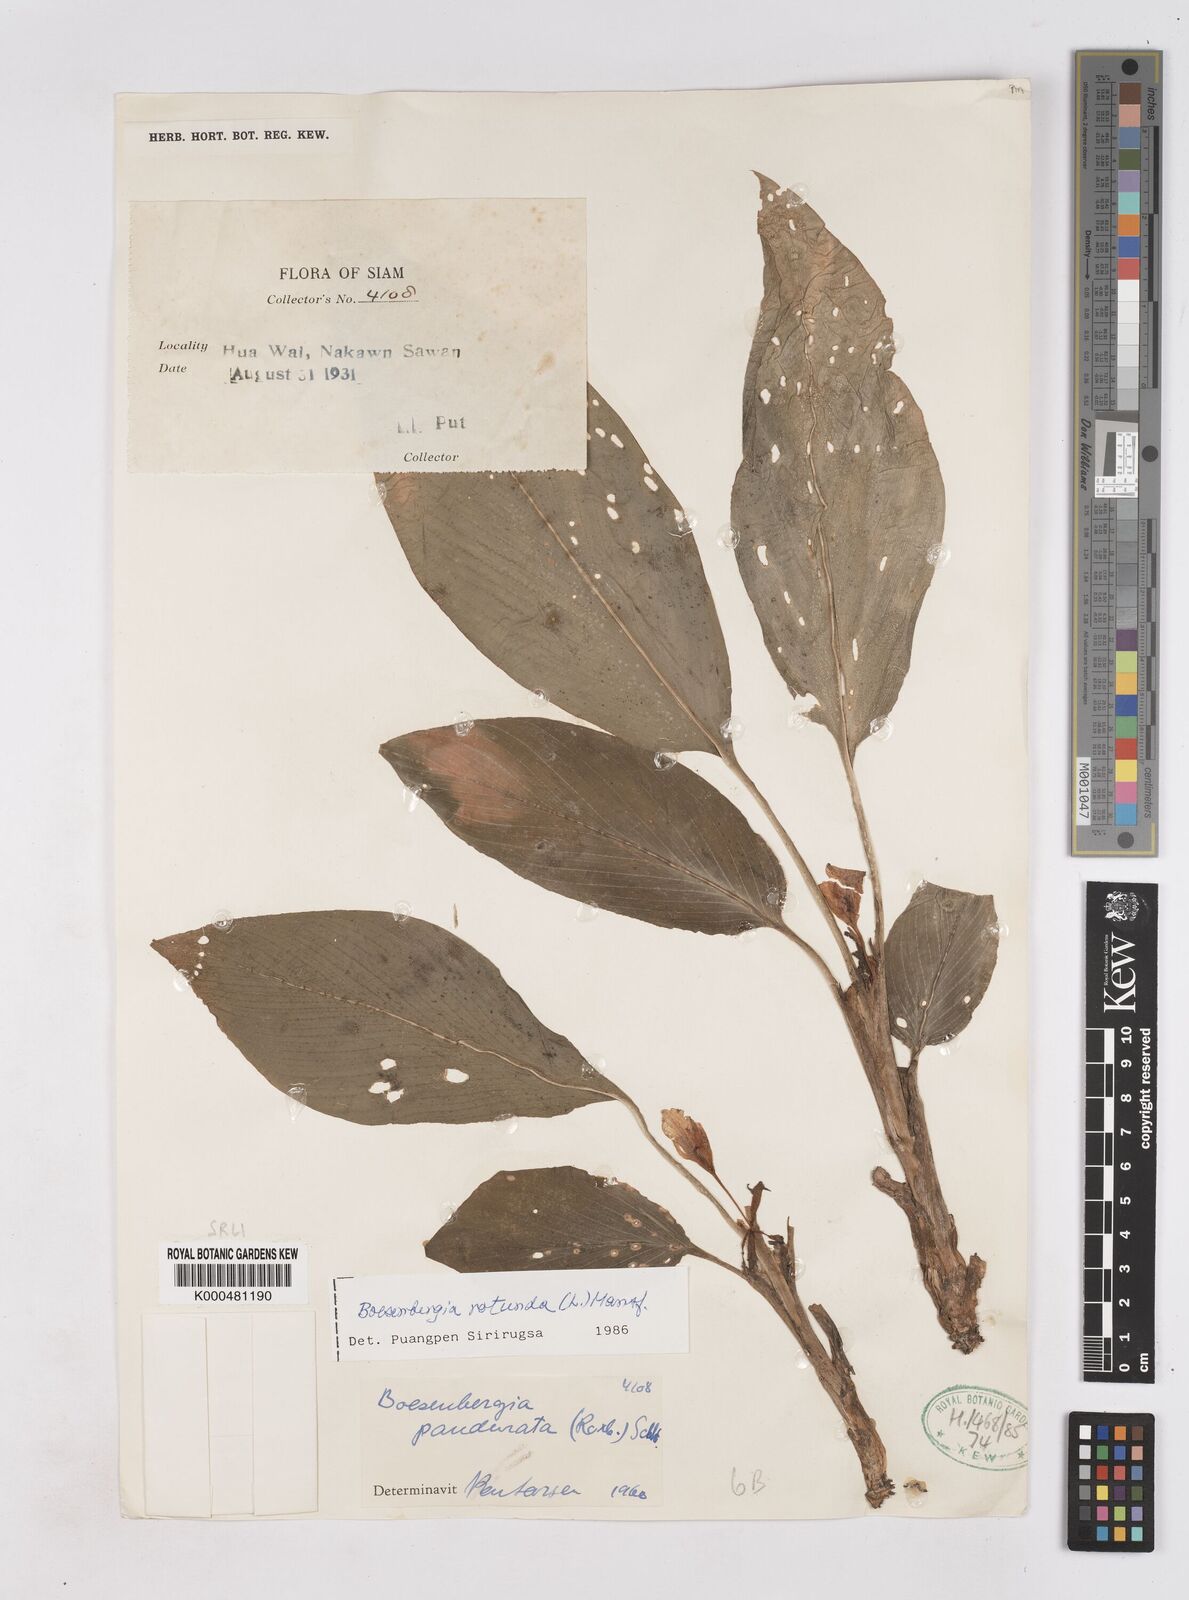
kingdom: Plantae
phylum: Tracheophyta
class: Liliopsida
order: Zingiberales
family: Zingiberaceae
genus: Boesenbergia
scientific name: Boesenbergia rotunda
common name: Chinese ginger
